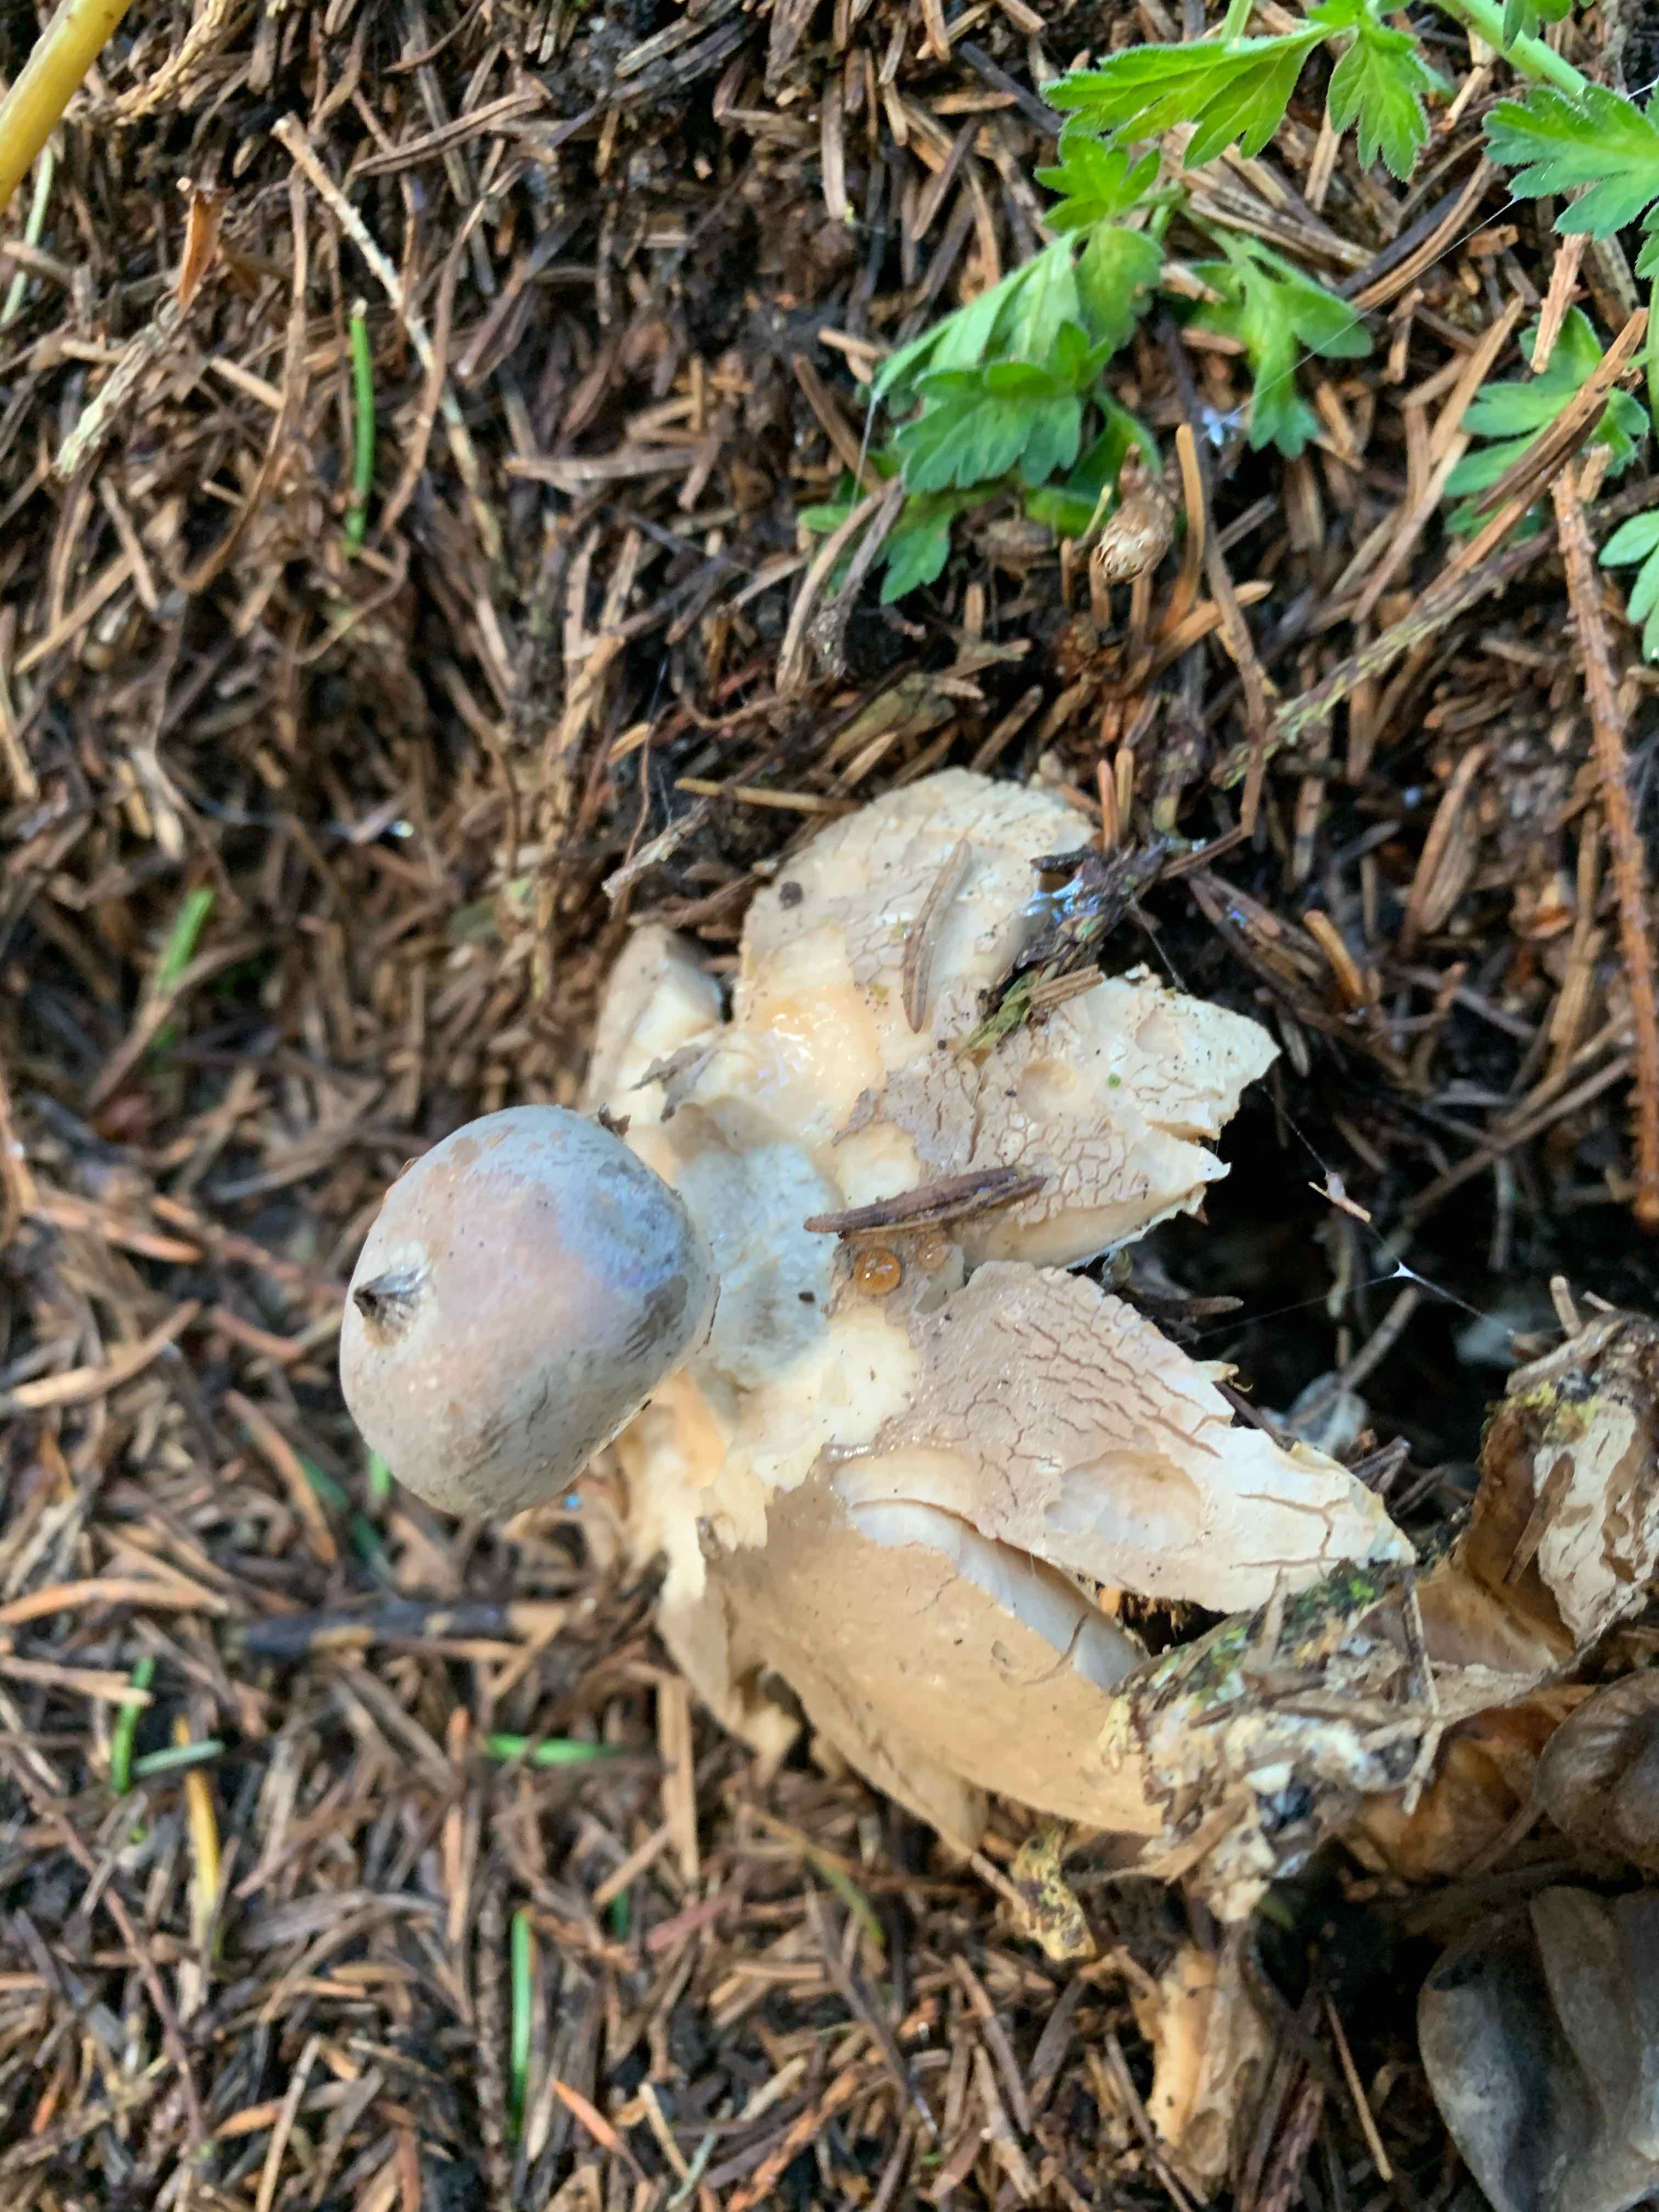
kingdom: Fungi
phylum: Basidiomycota
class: Agaricomycetes
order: Geastrales
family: Geastraceae
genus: Geastrum
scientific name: Geastrum pectinatum
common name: stilket stjernebold
